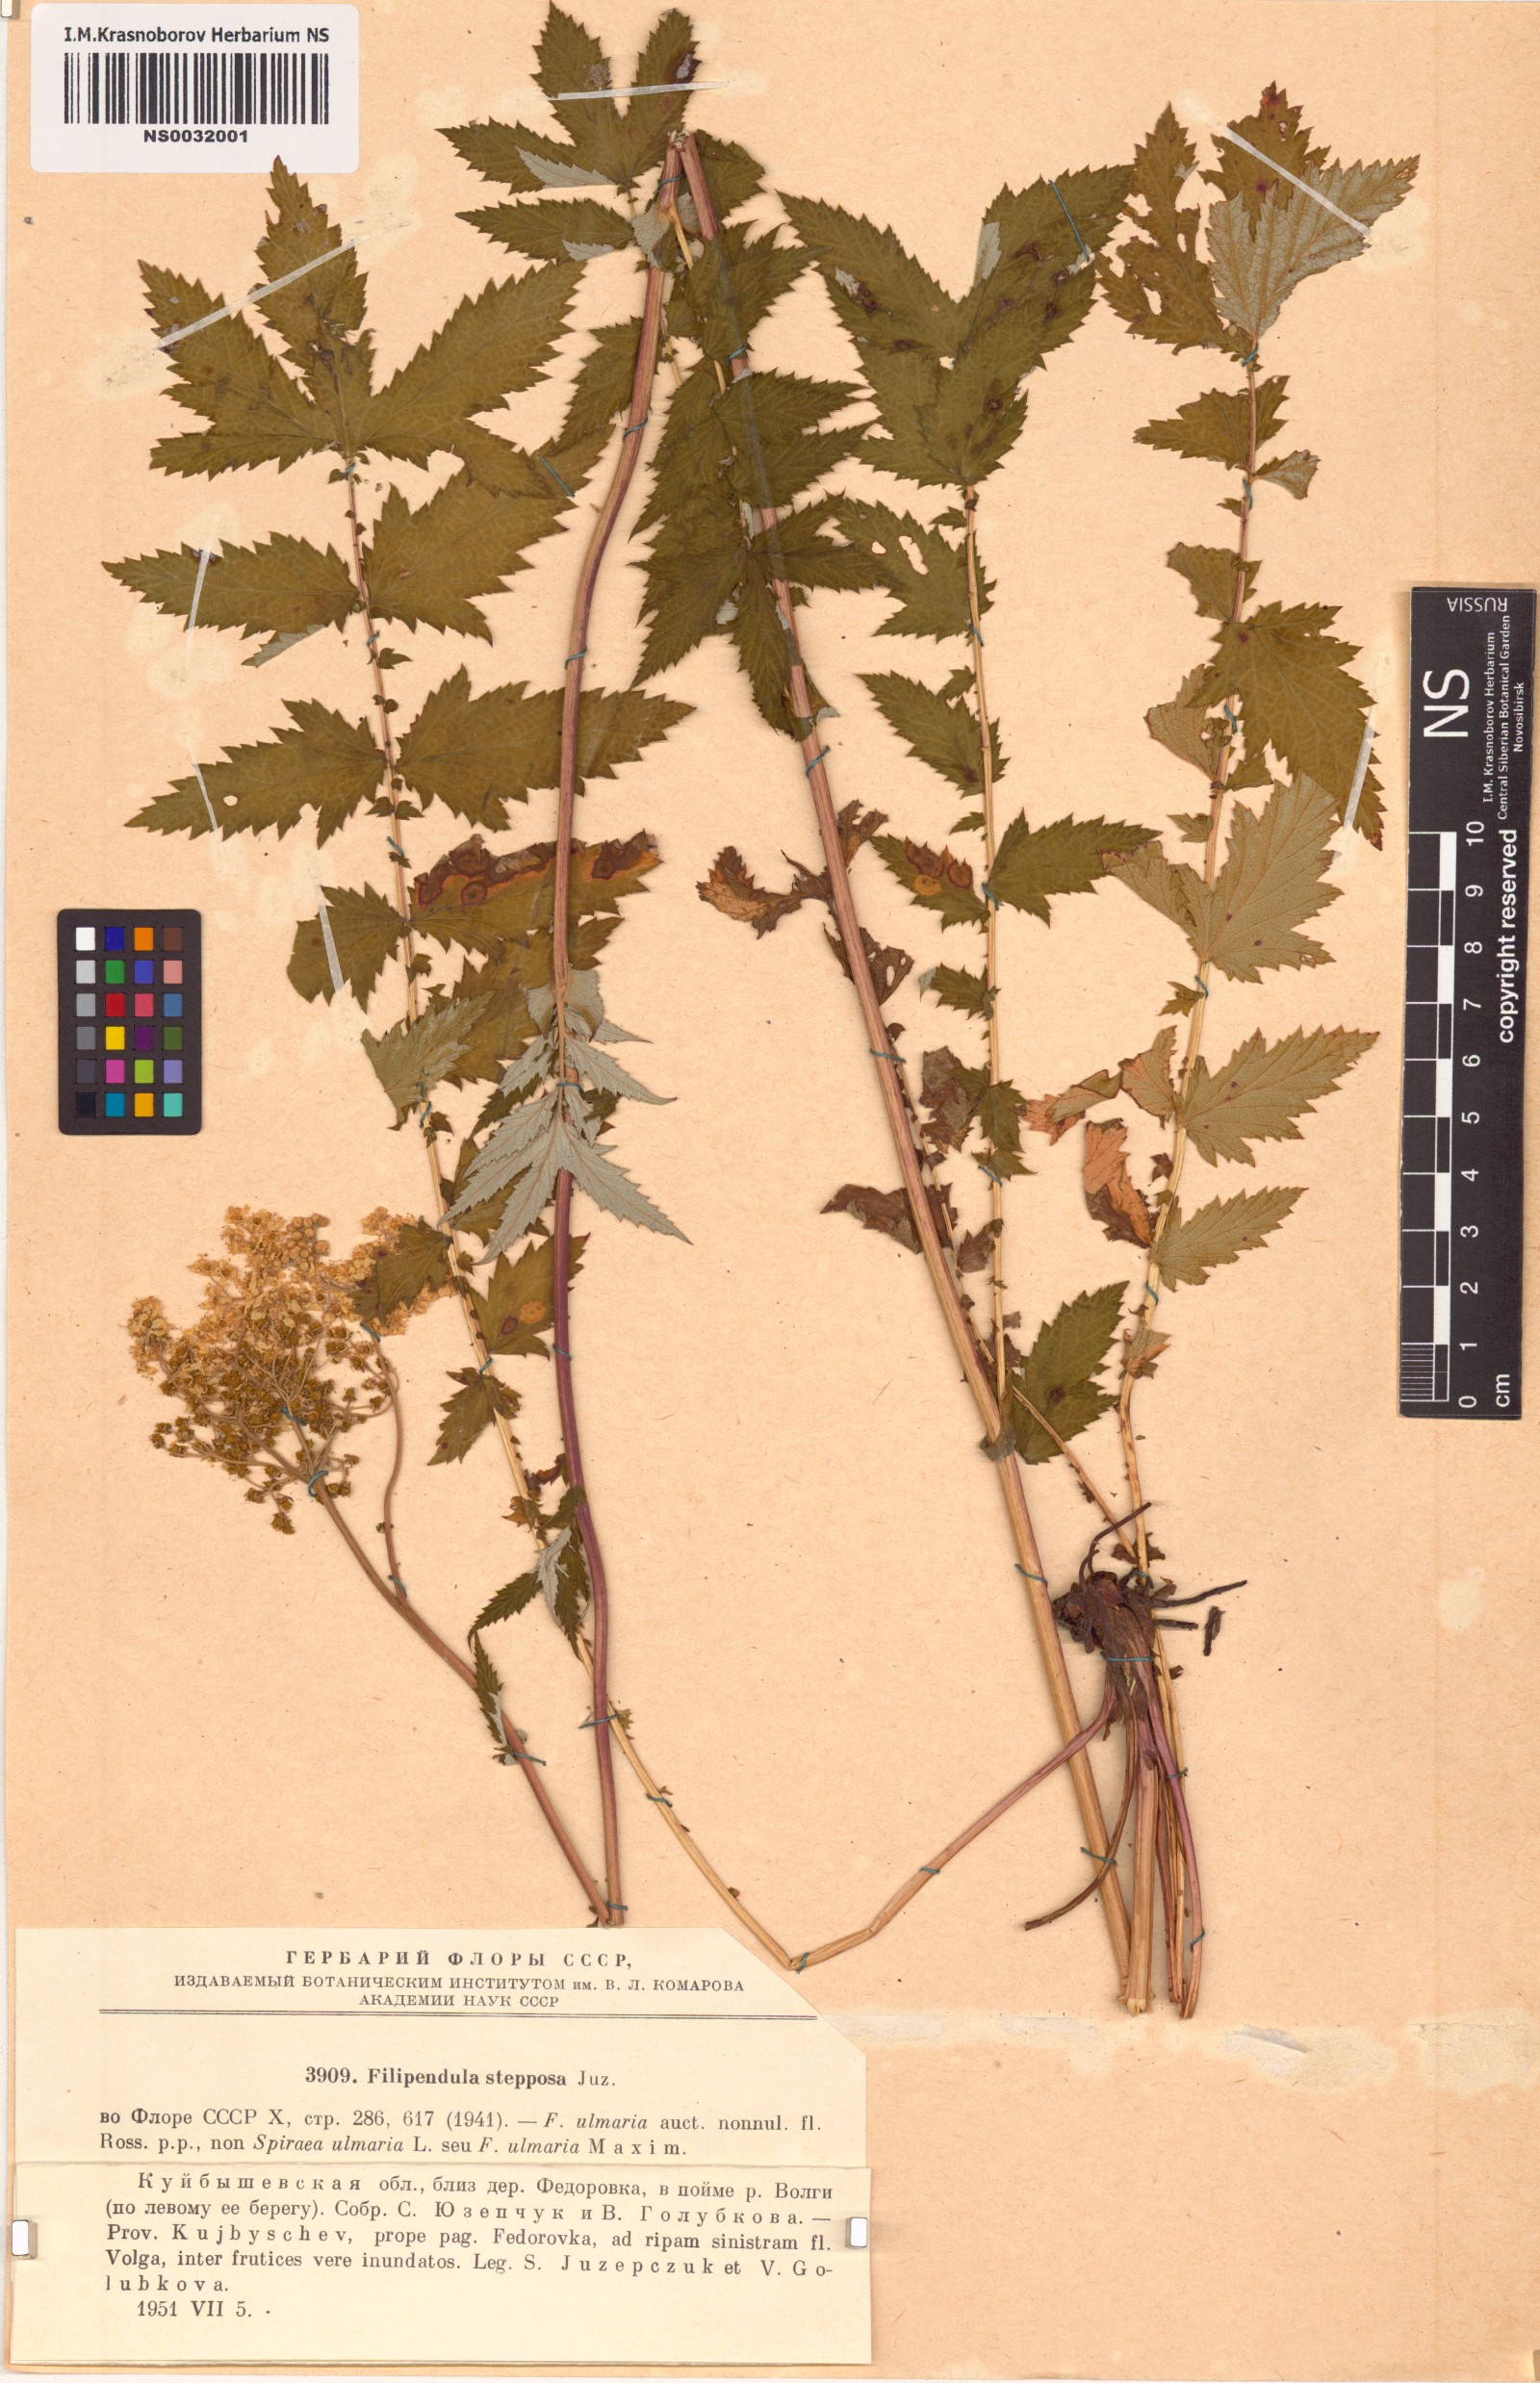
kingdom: Plantae
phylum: Tracheophyta
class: Magnoliopsida
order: Rosales
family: Rosaceae
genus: Filipendula
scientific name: Filipendula ulmaria
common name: Meadowsweet
